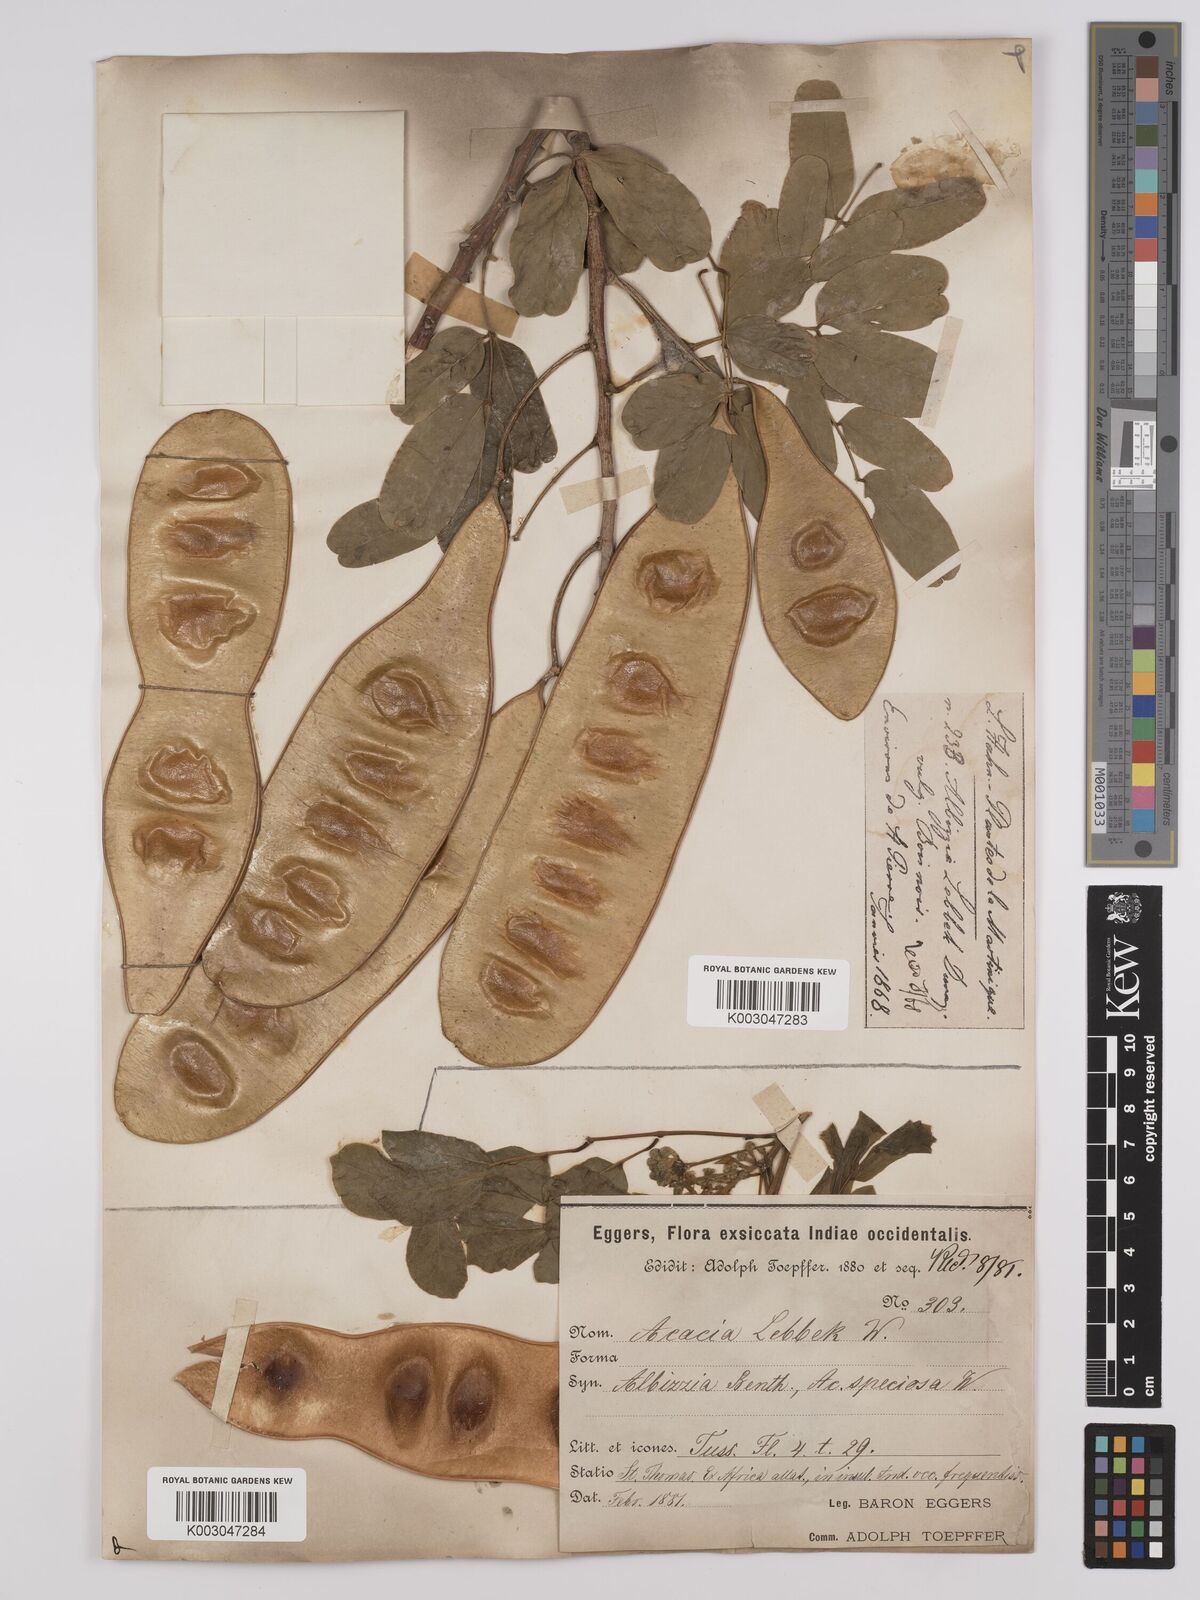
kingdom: Plantae
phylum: Tracheophyta
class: Magnoliopsida
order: Fabales
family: Fabaceae
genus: Albizia
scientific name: Albizia lebbeck
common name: Woman's tongue
